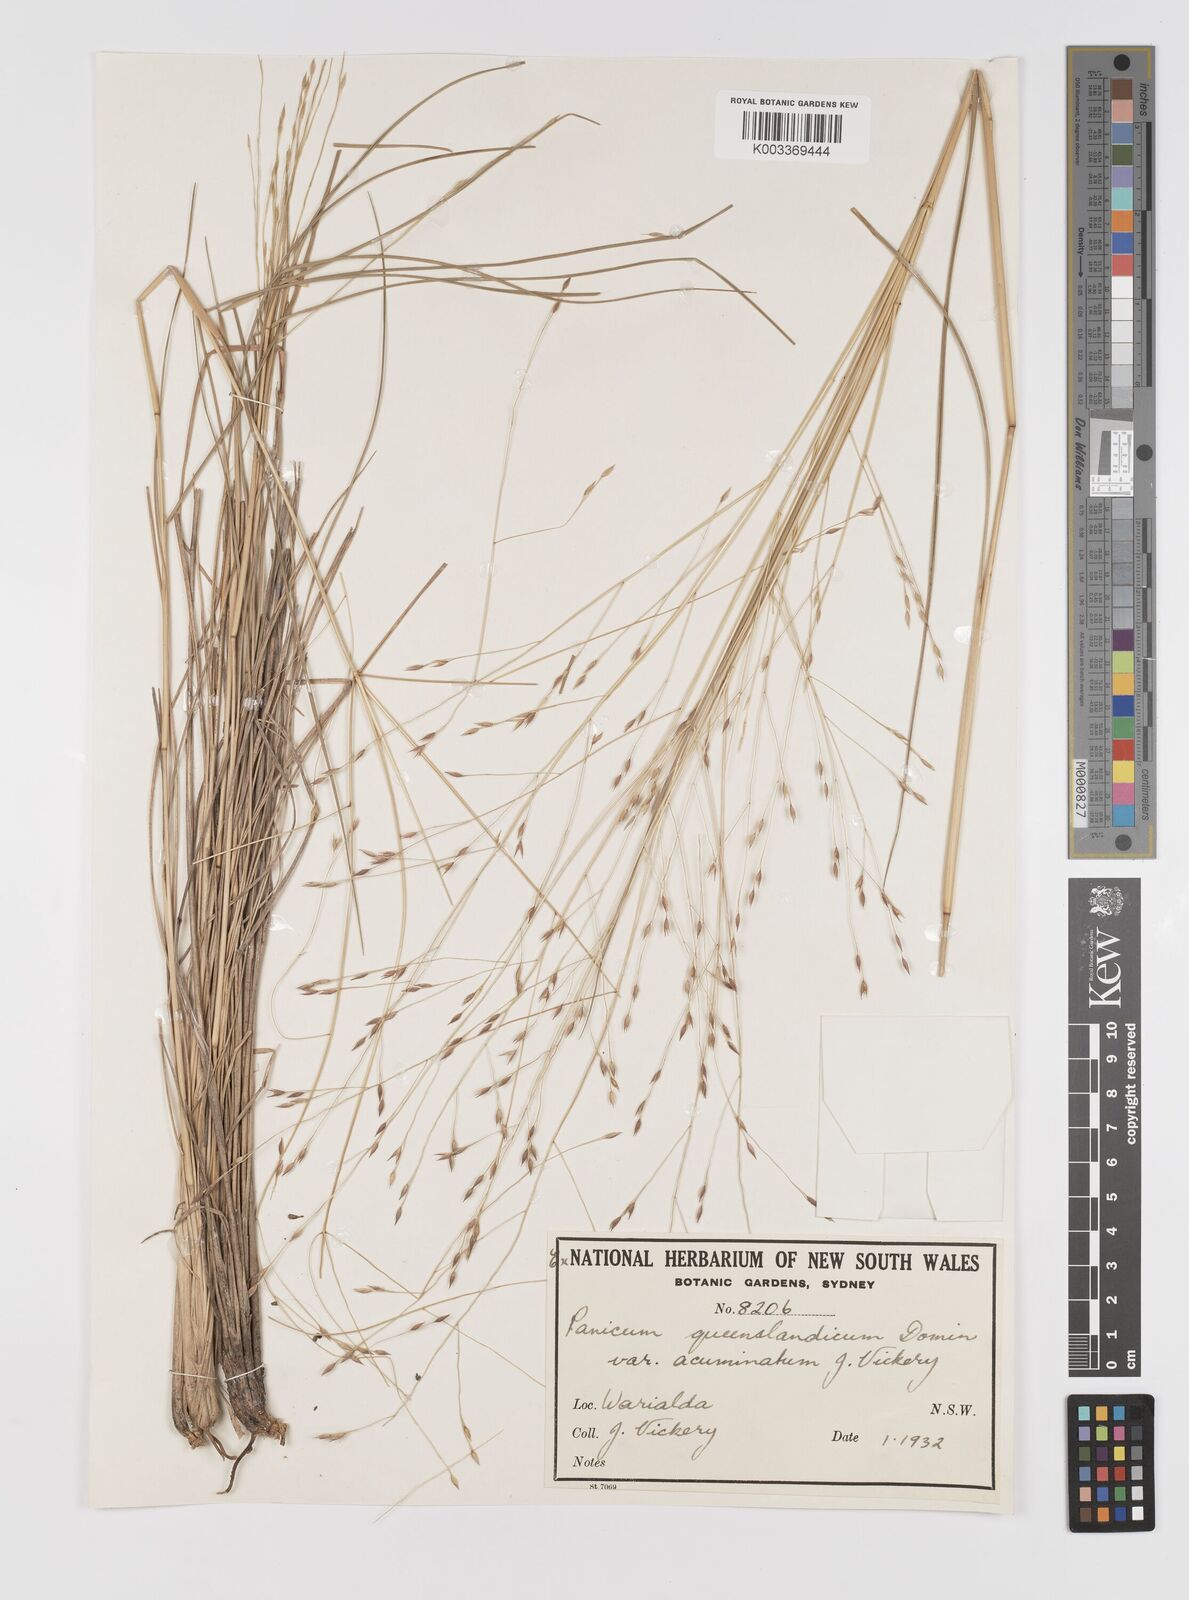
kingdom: Plantae
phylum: Tracheophyta
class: Liliopsida
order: Poales
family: Poaceae
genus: Panicum
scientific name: Panicum queenslandicum
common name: Yabila grass
